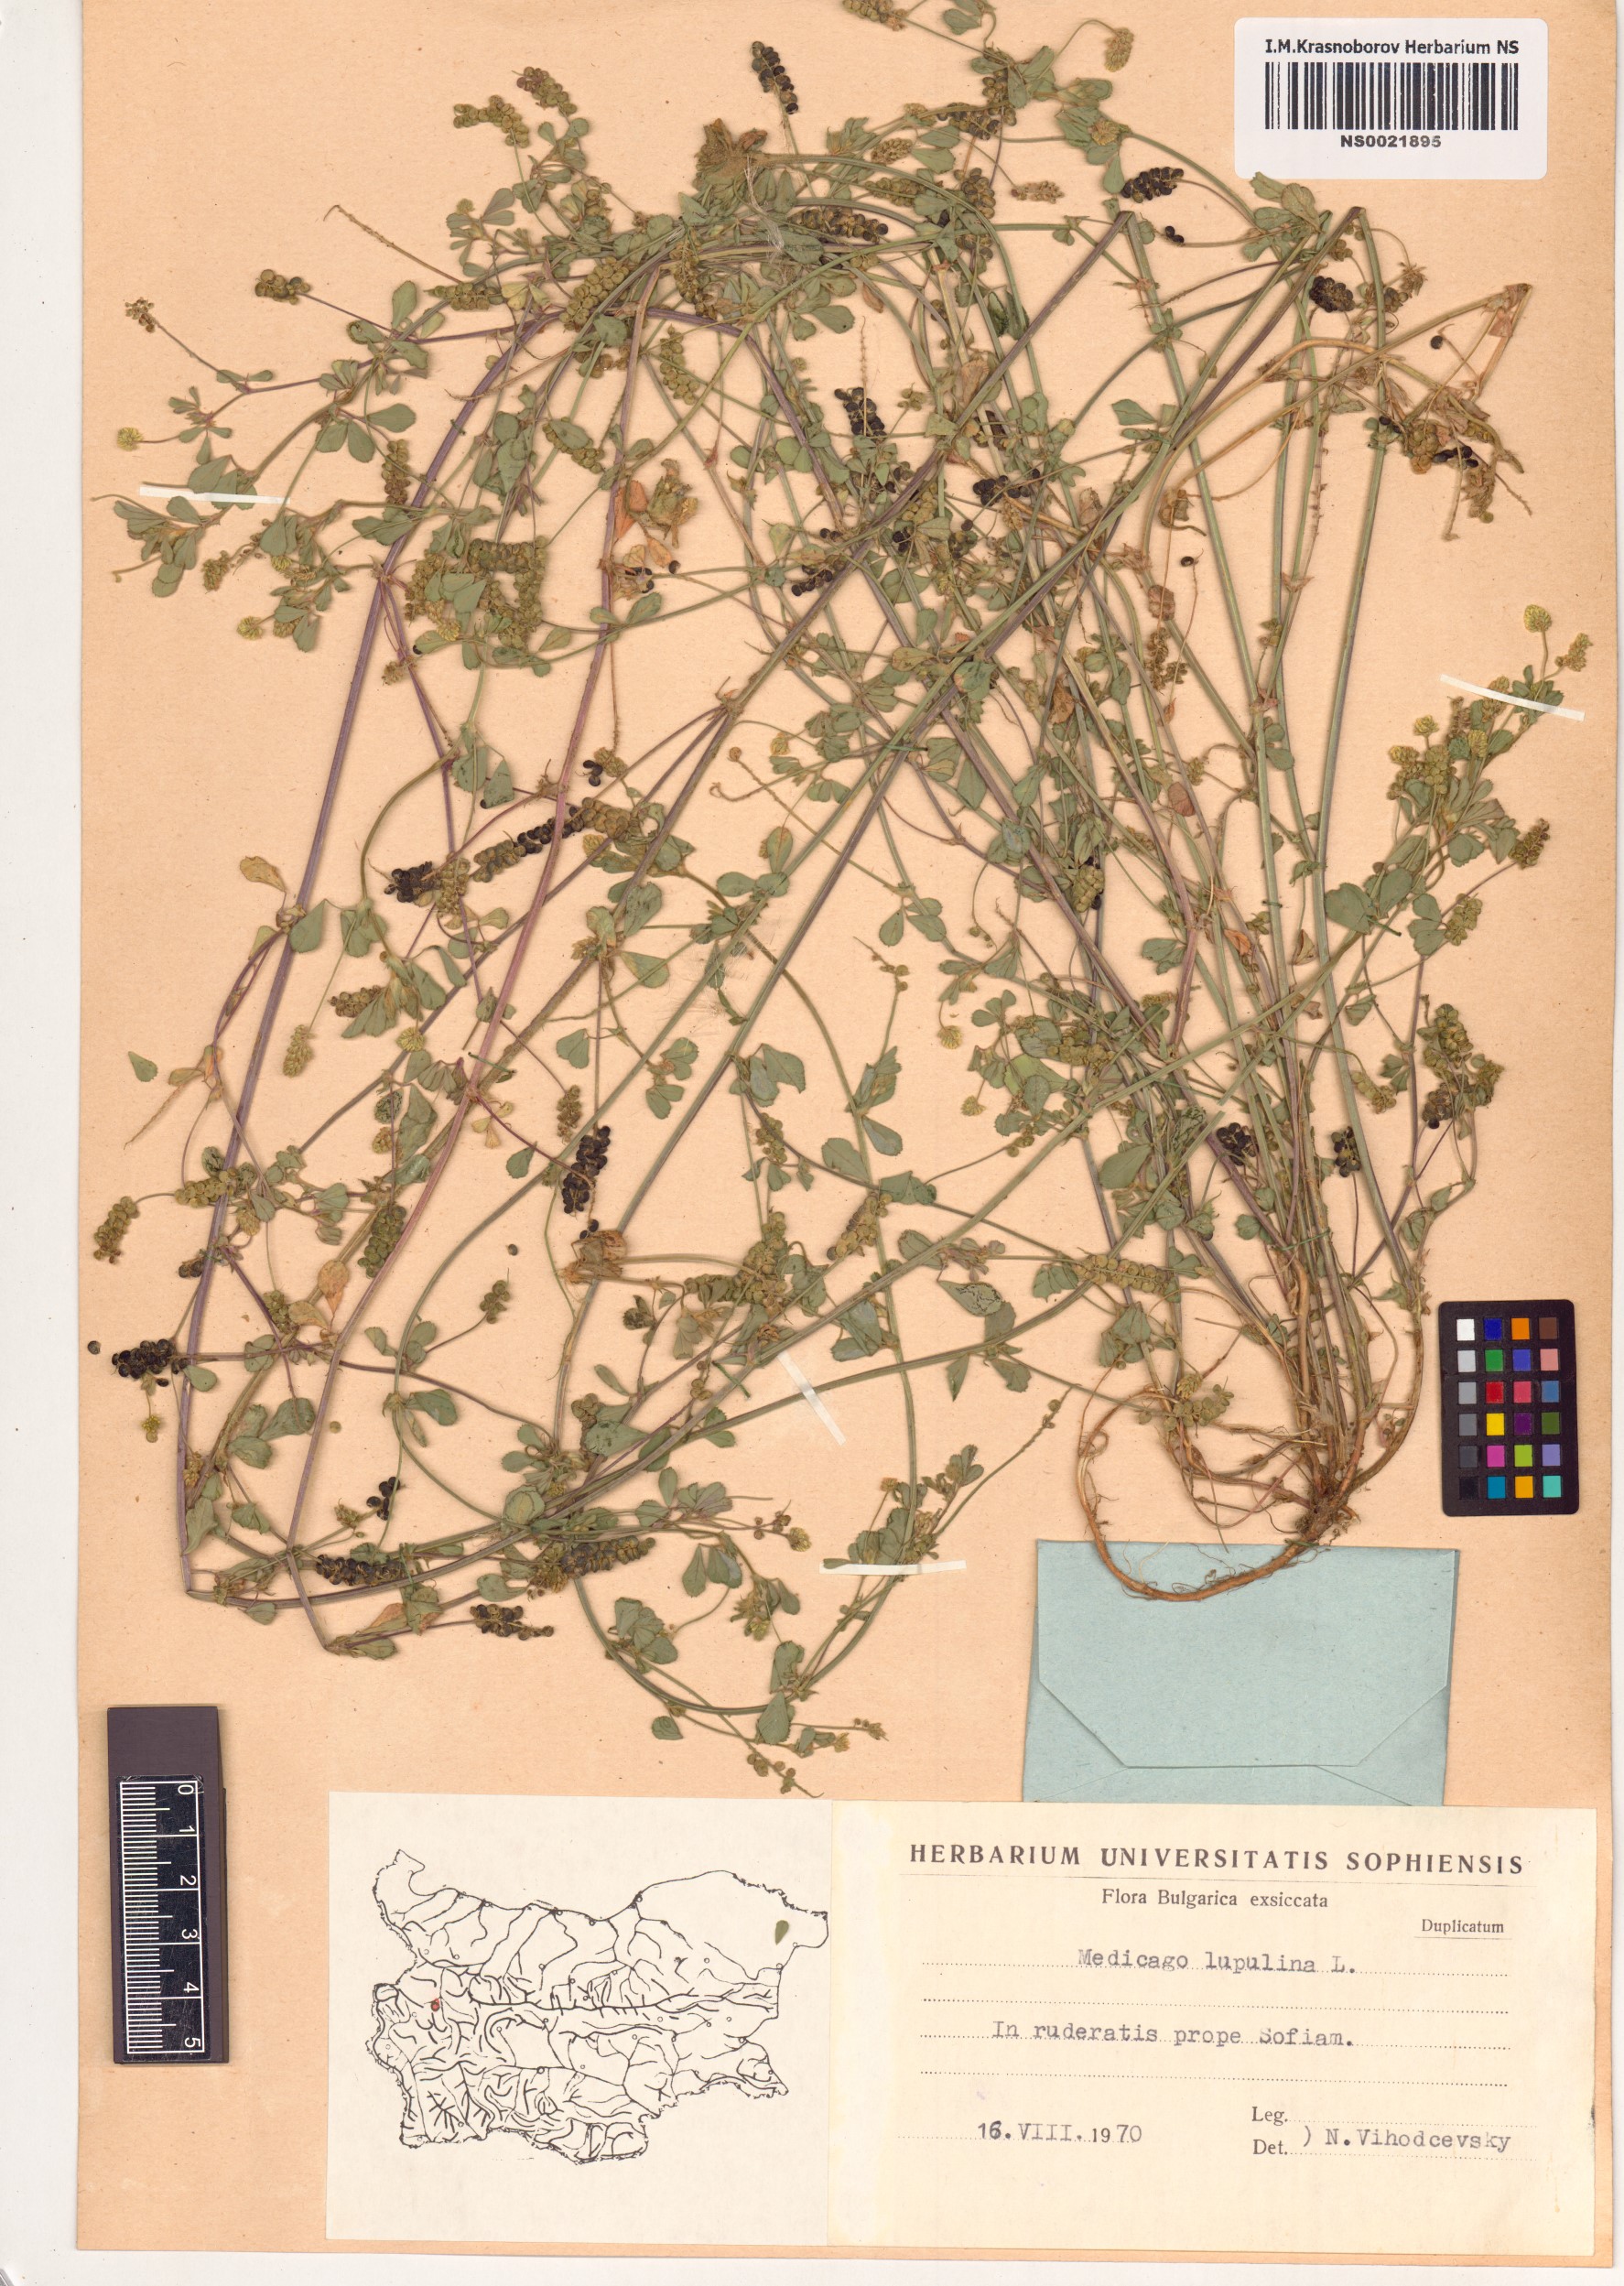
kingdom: Plantae
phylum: Tracheophyta
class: Magnoliopsida
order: Fabales
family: Fabaceae
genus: Medicago
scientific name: Medicago lupulina
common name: Black medick
